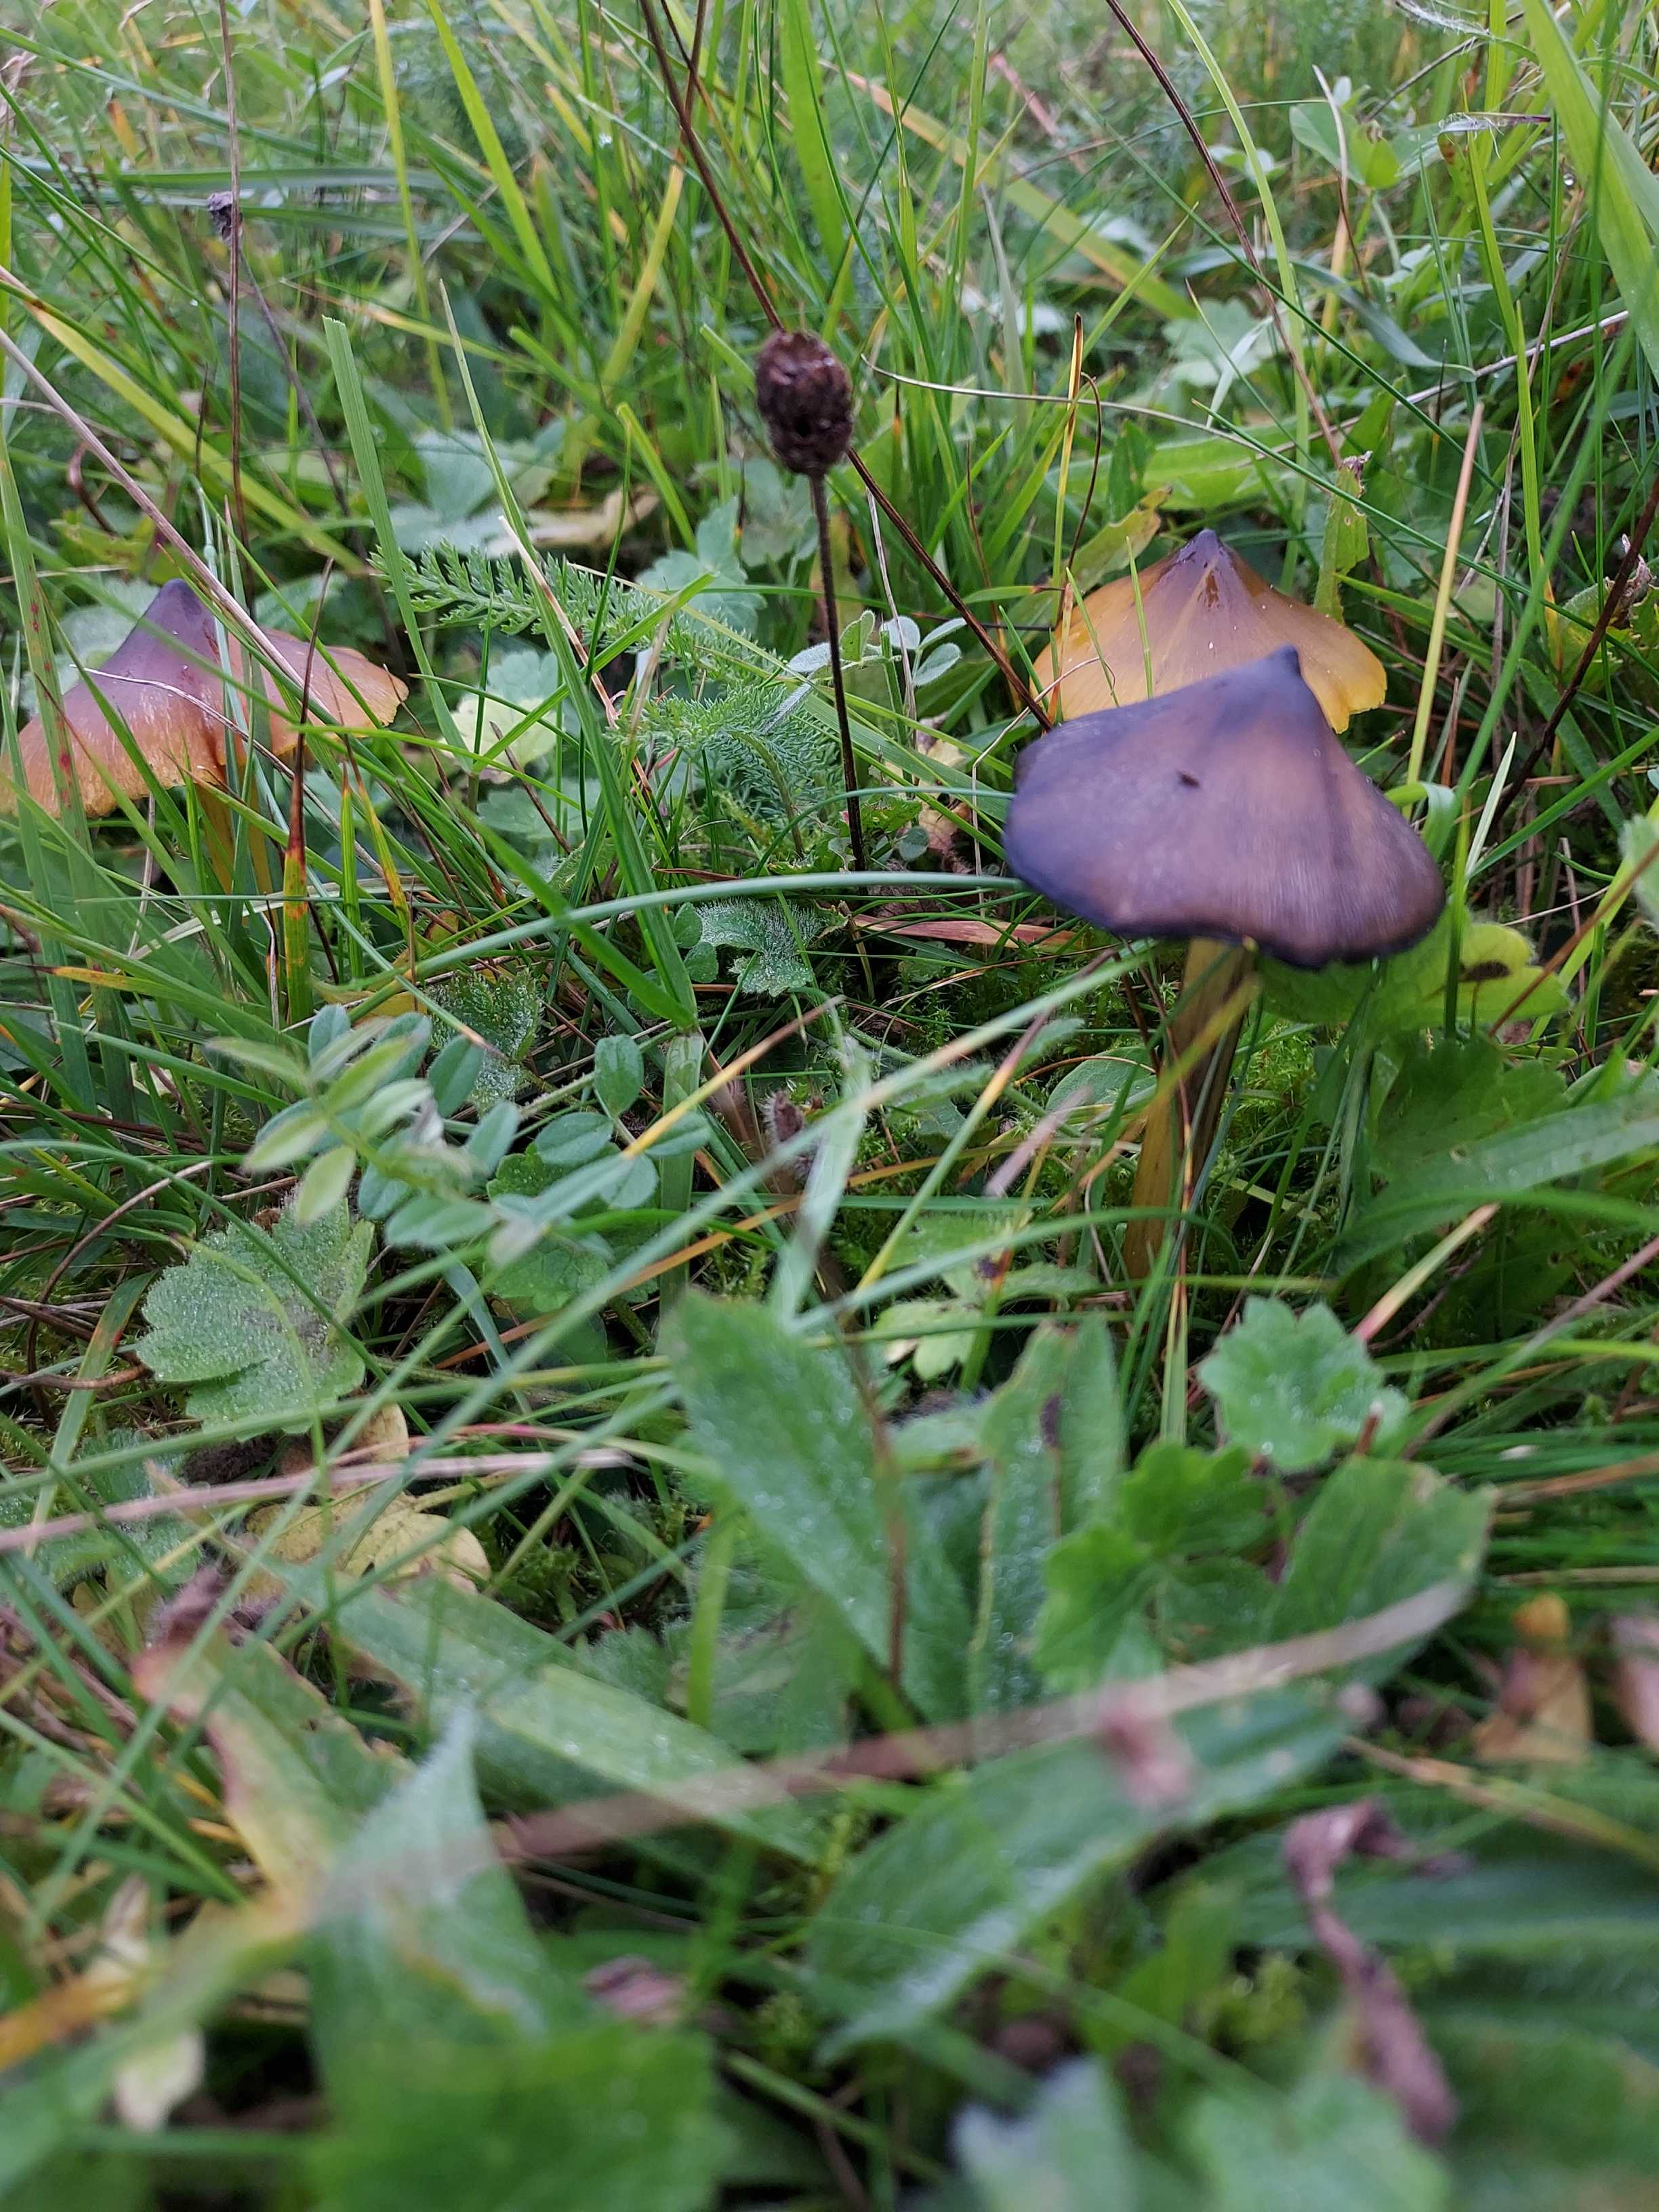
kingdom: Fungi
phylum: Basidiomycota
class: Agaricomycetes
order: Agaricales
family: Hygrophoraceae
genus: Hygrocybe
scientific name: Hygrocybe conica
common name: kegle-vokshat
